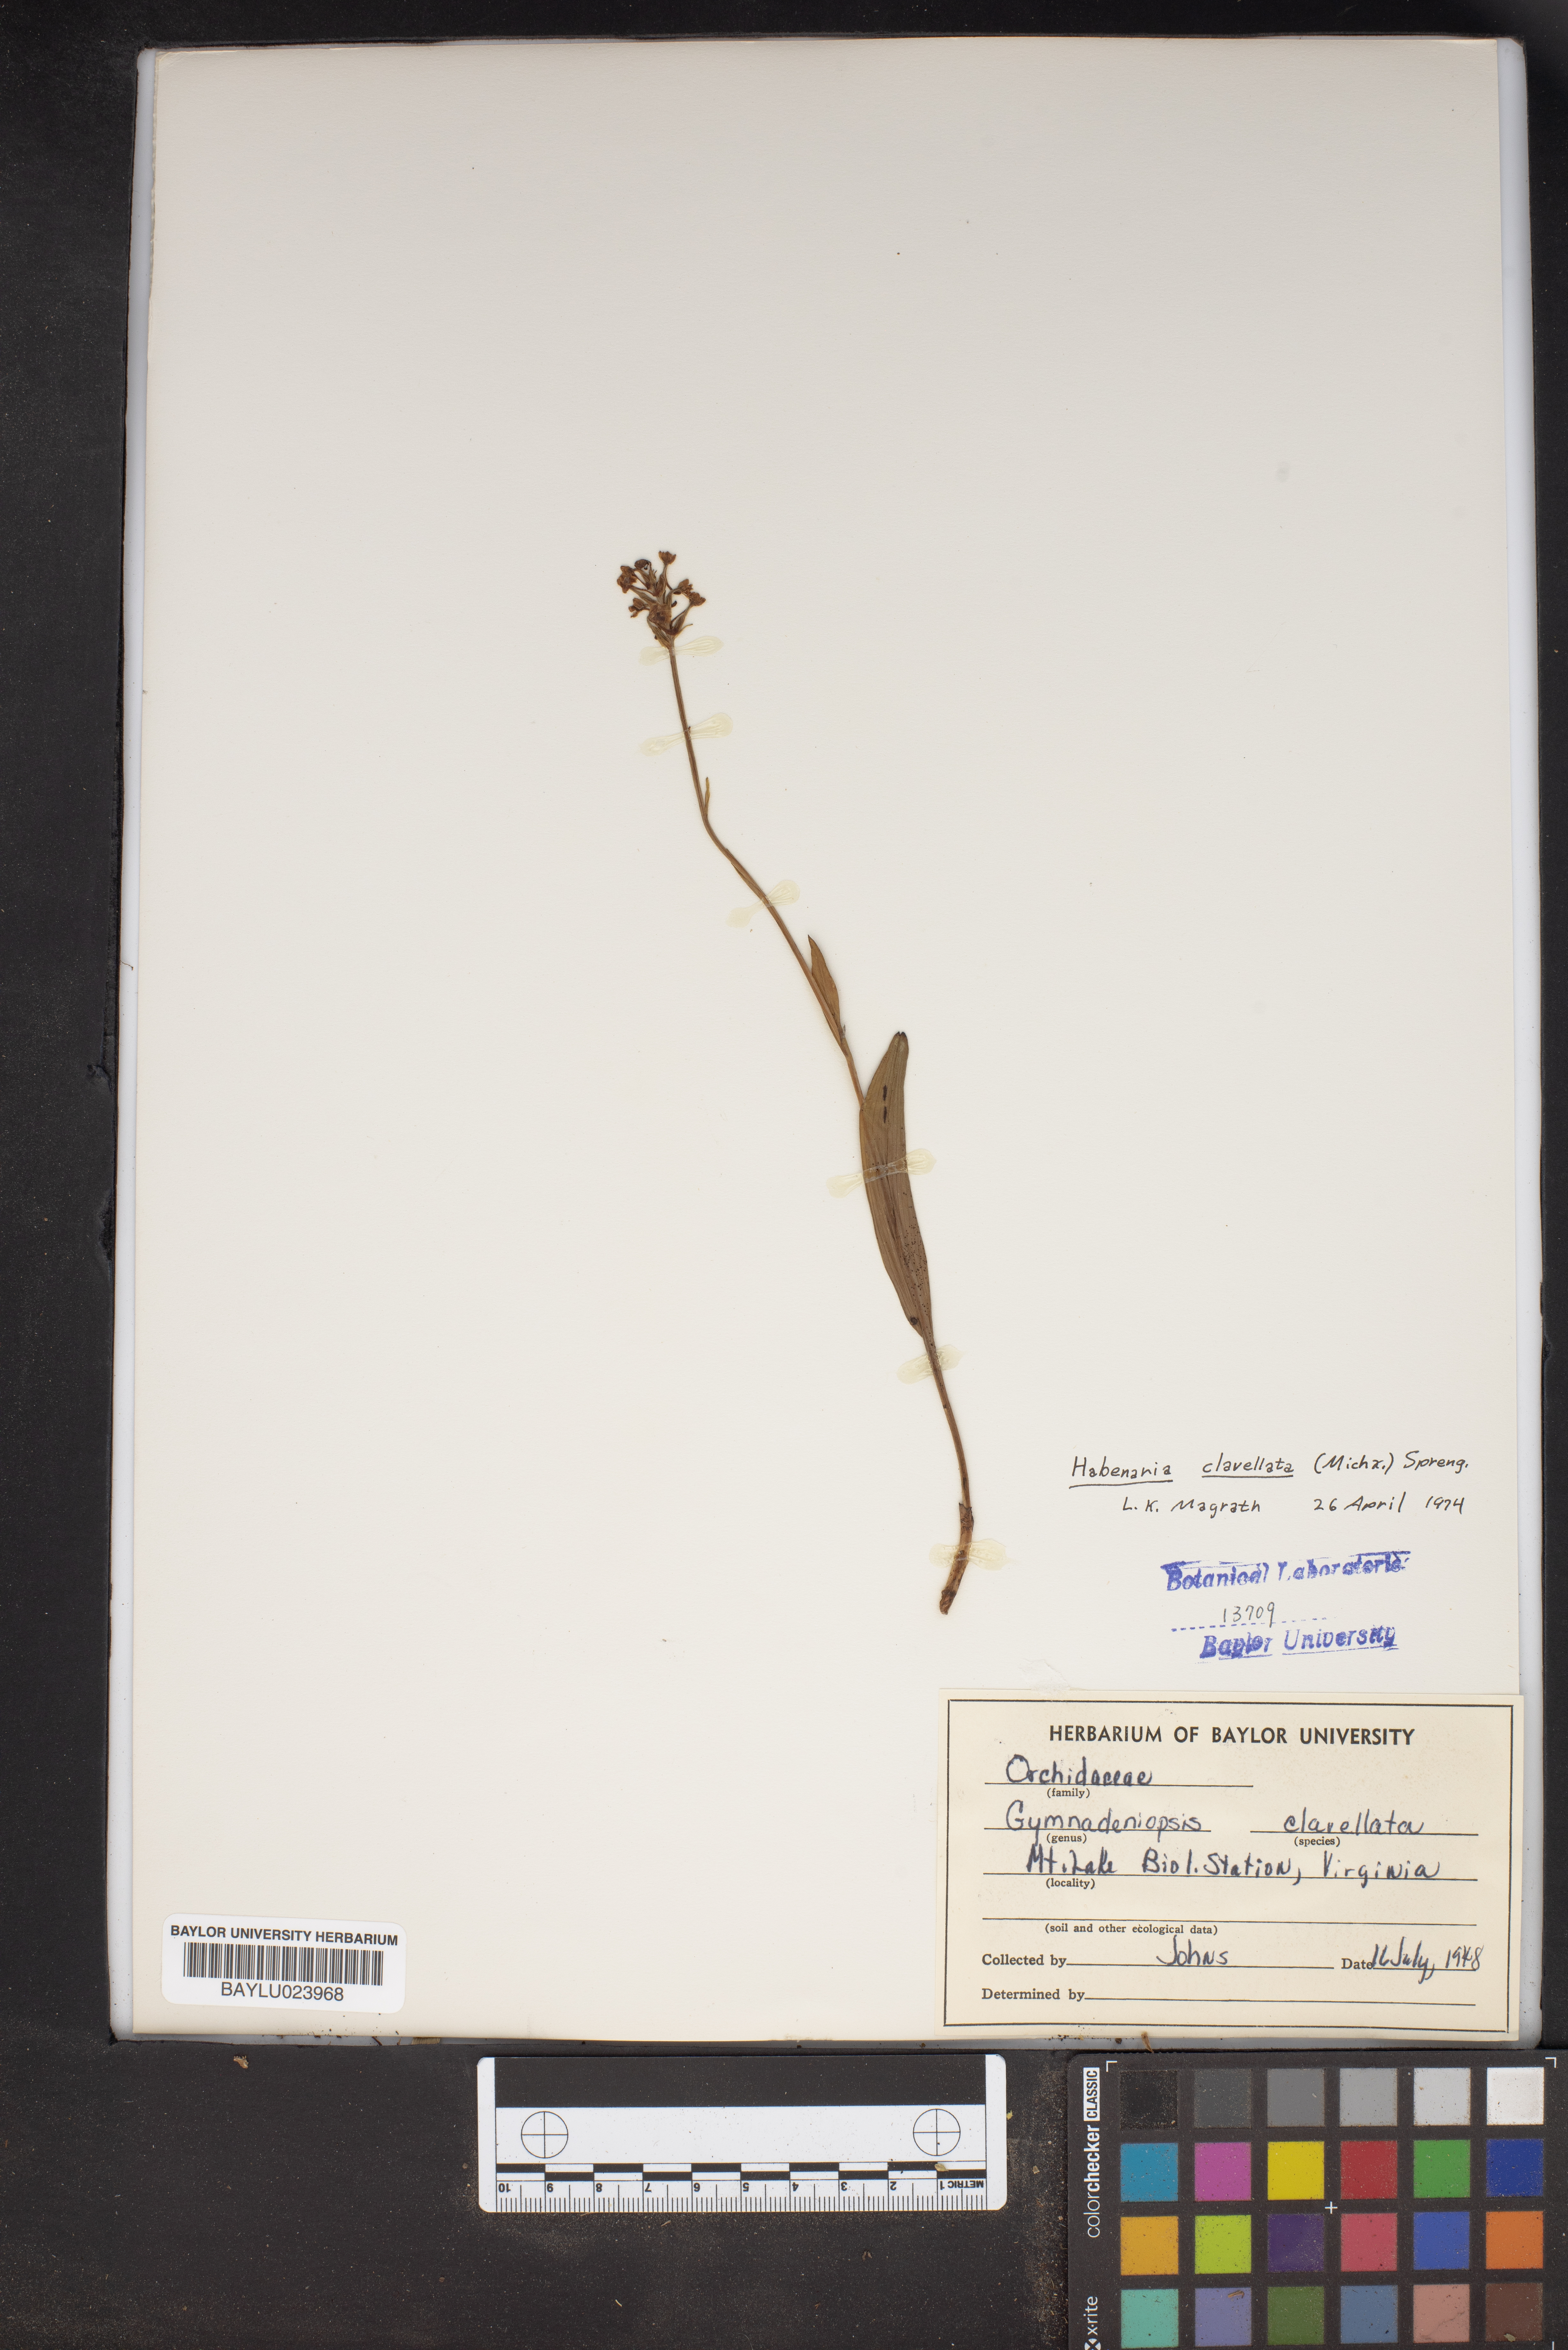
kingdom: Plantae
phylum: Tracheophyta
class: Liliopsida
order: Asparagales
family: Orchidaceae
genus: Platanthera
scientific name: Platanthera clavellata
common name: Club-spur orchid
